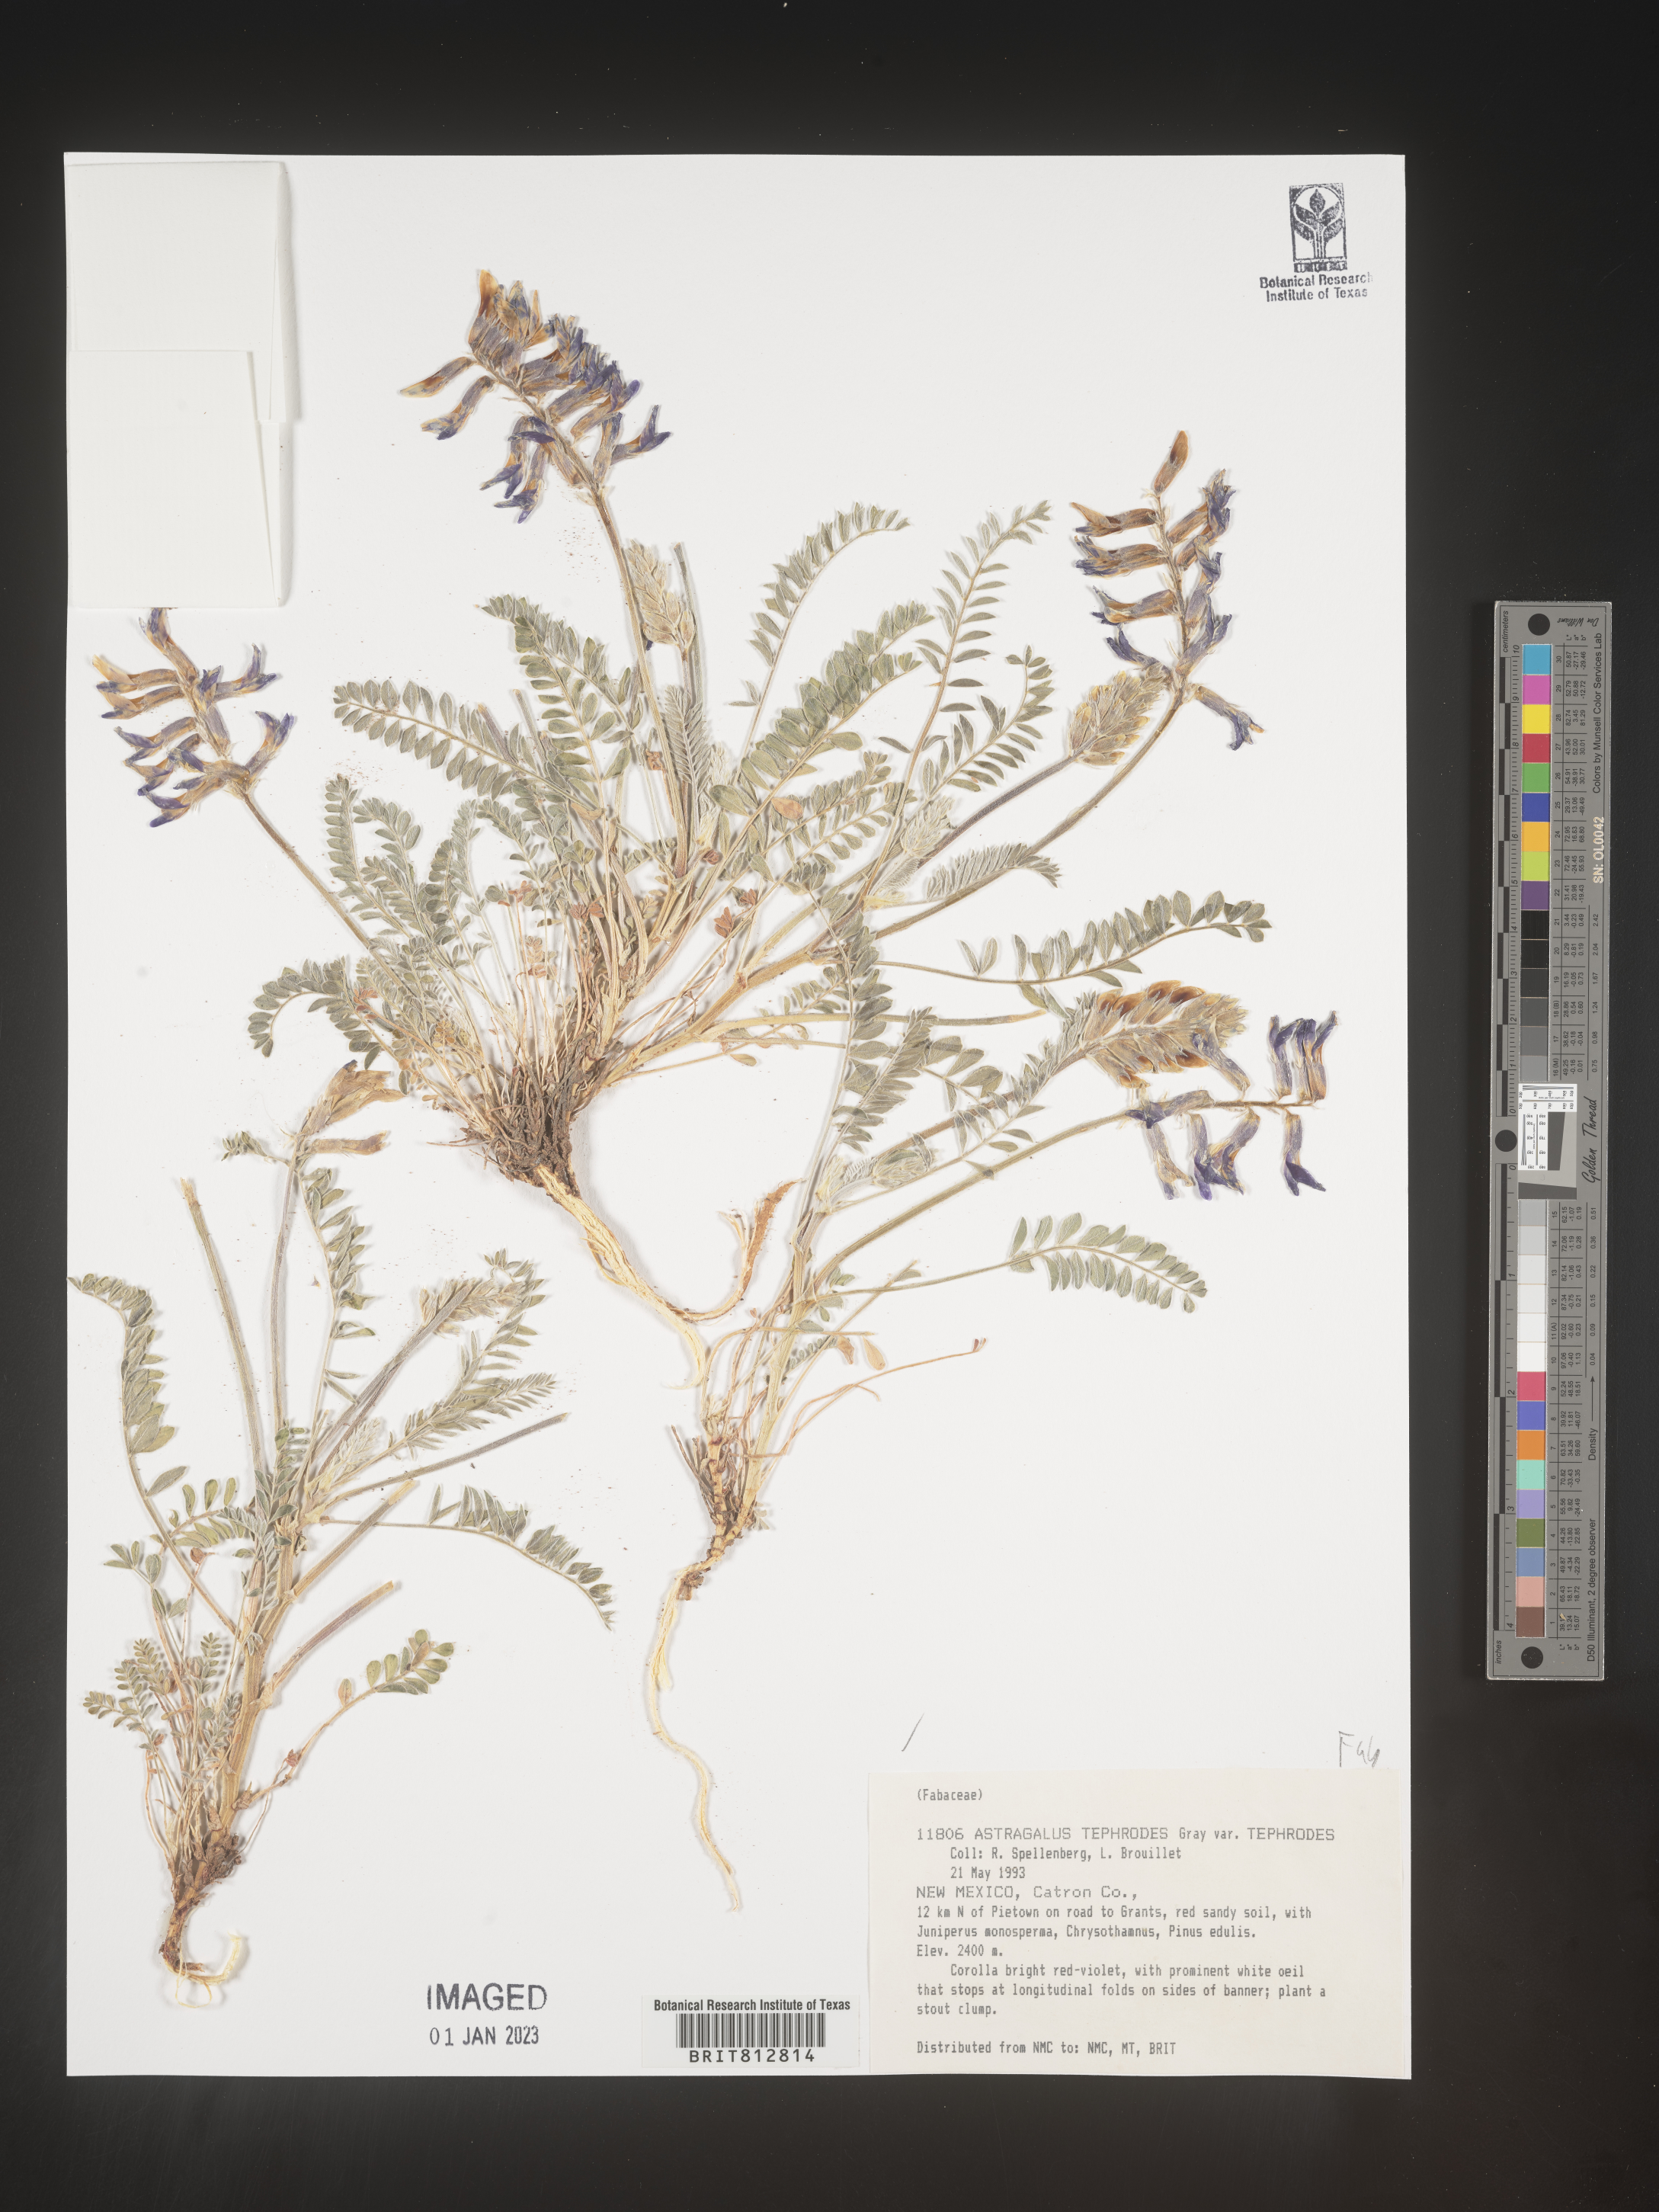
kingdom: Plantae
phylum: Tracheophyta
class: Magnoliopsida
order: Fabales
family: Fabaceae
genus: Astragalus
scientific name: Astragalus
